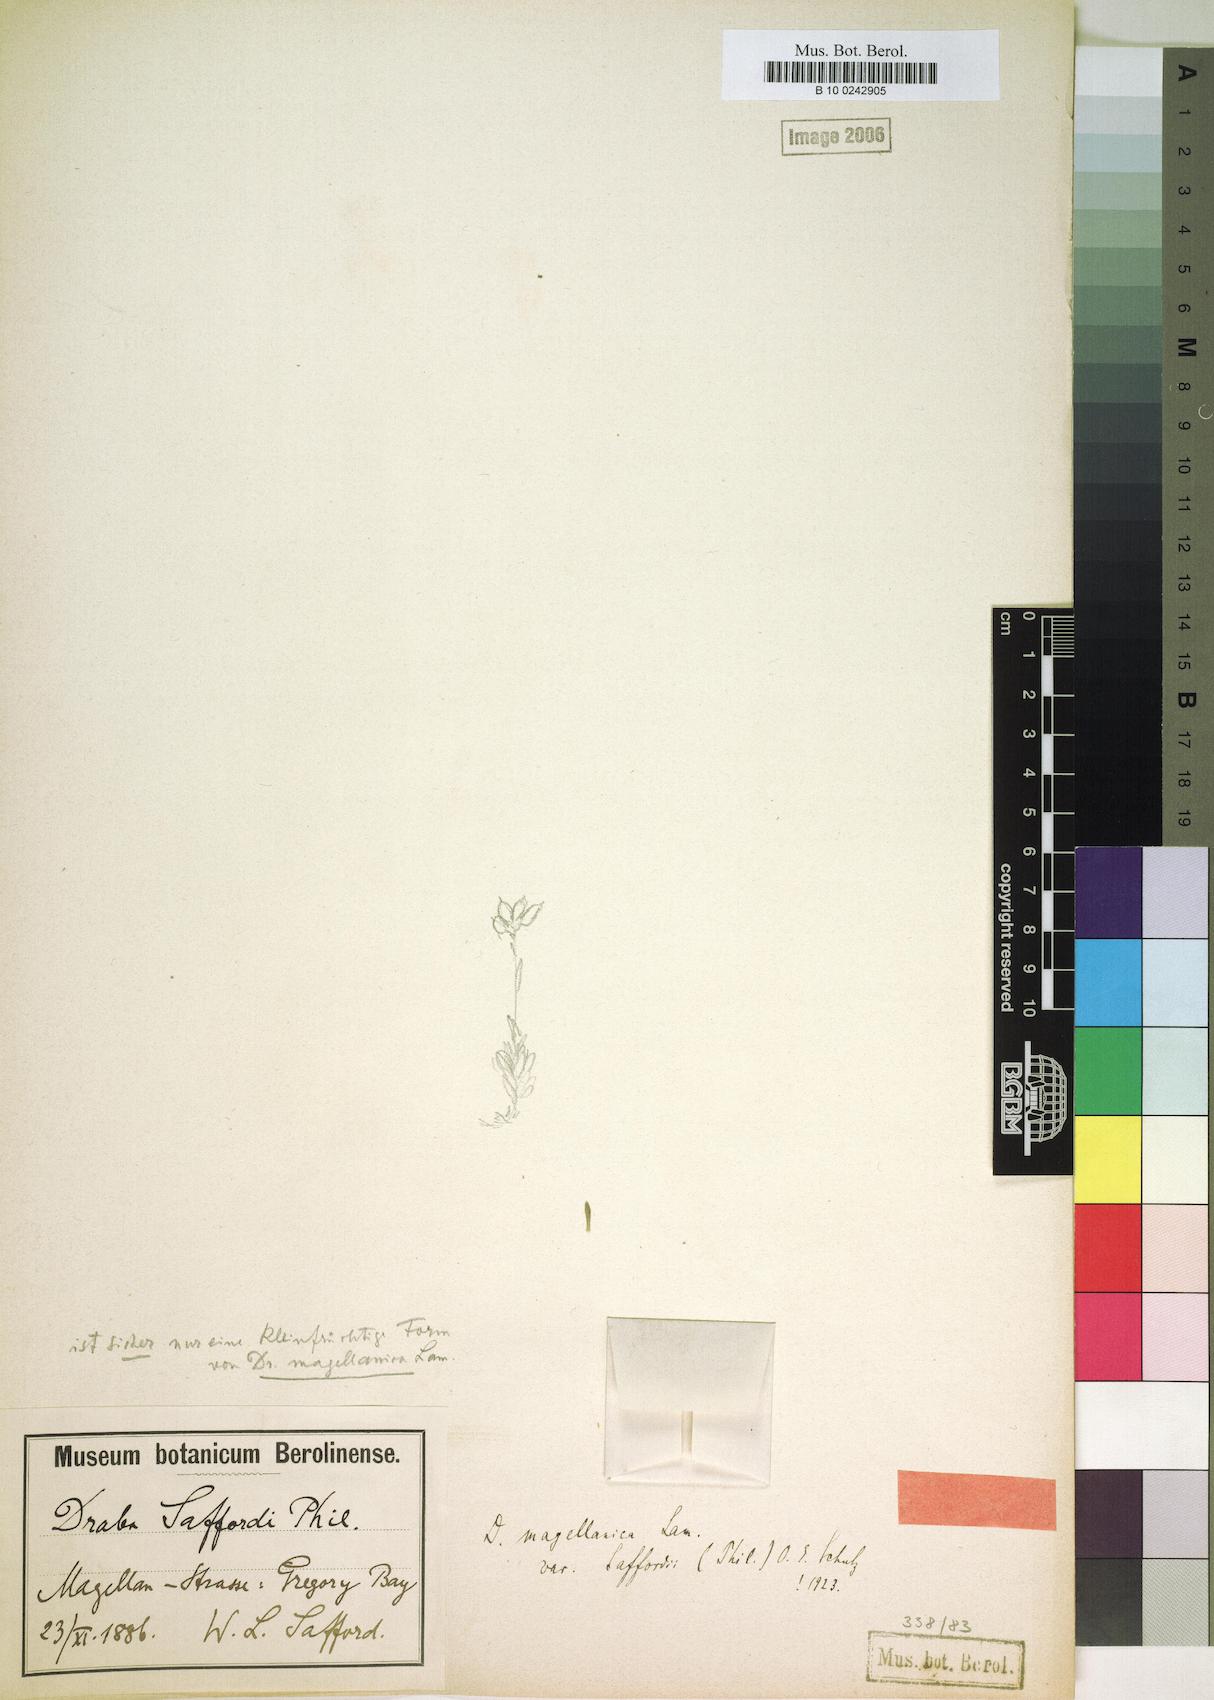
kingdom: Plantae
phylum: Tracheophyta
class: Magnoliopsida
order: Brassicales
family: Brassicaceae
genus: Draba
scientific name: Draba magellanica
